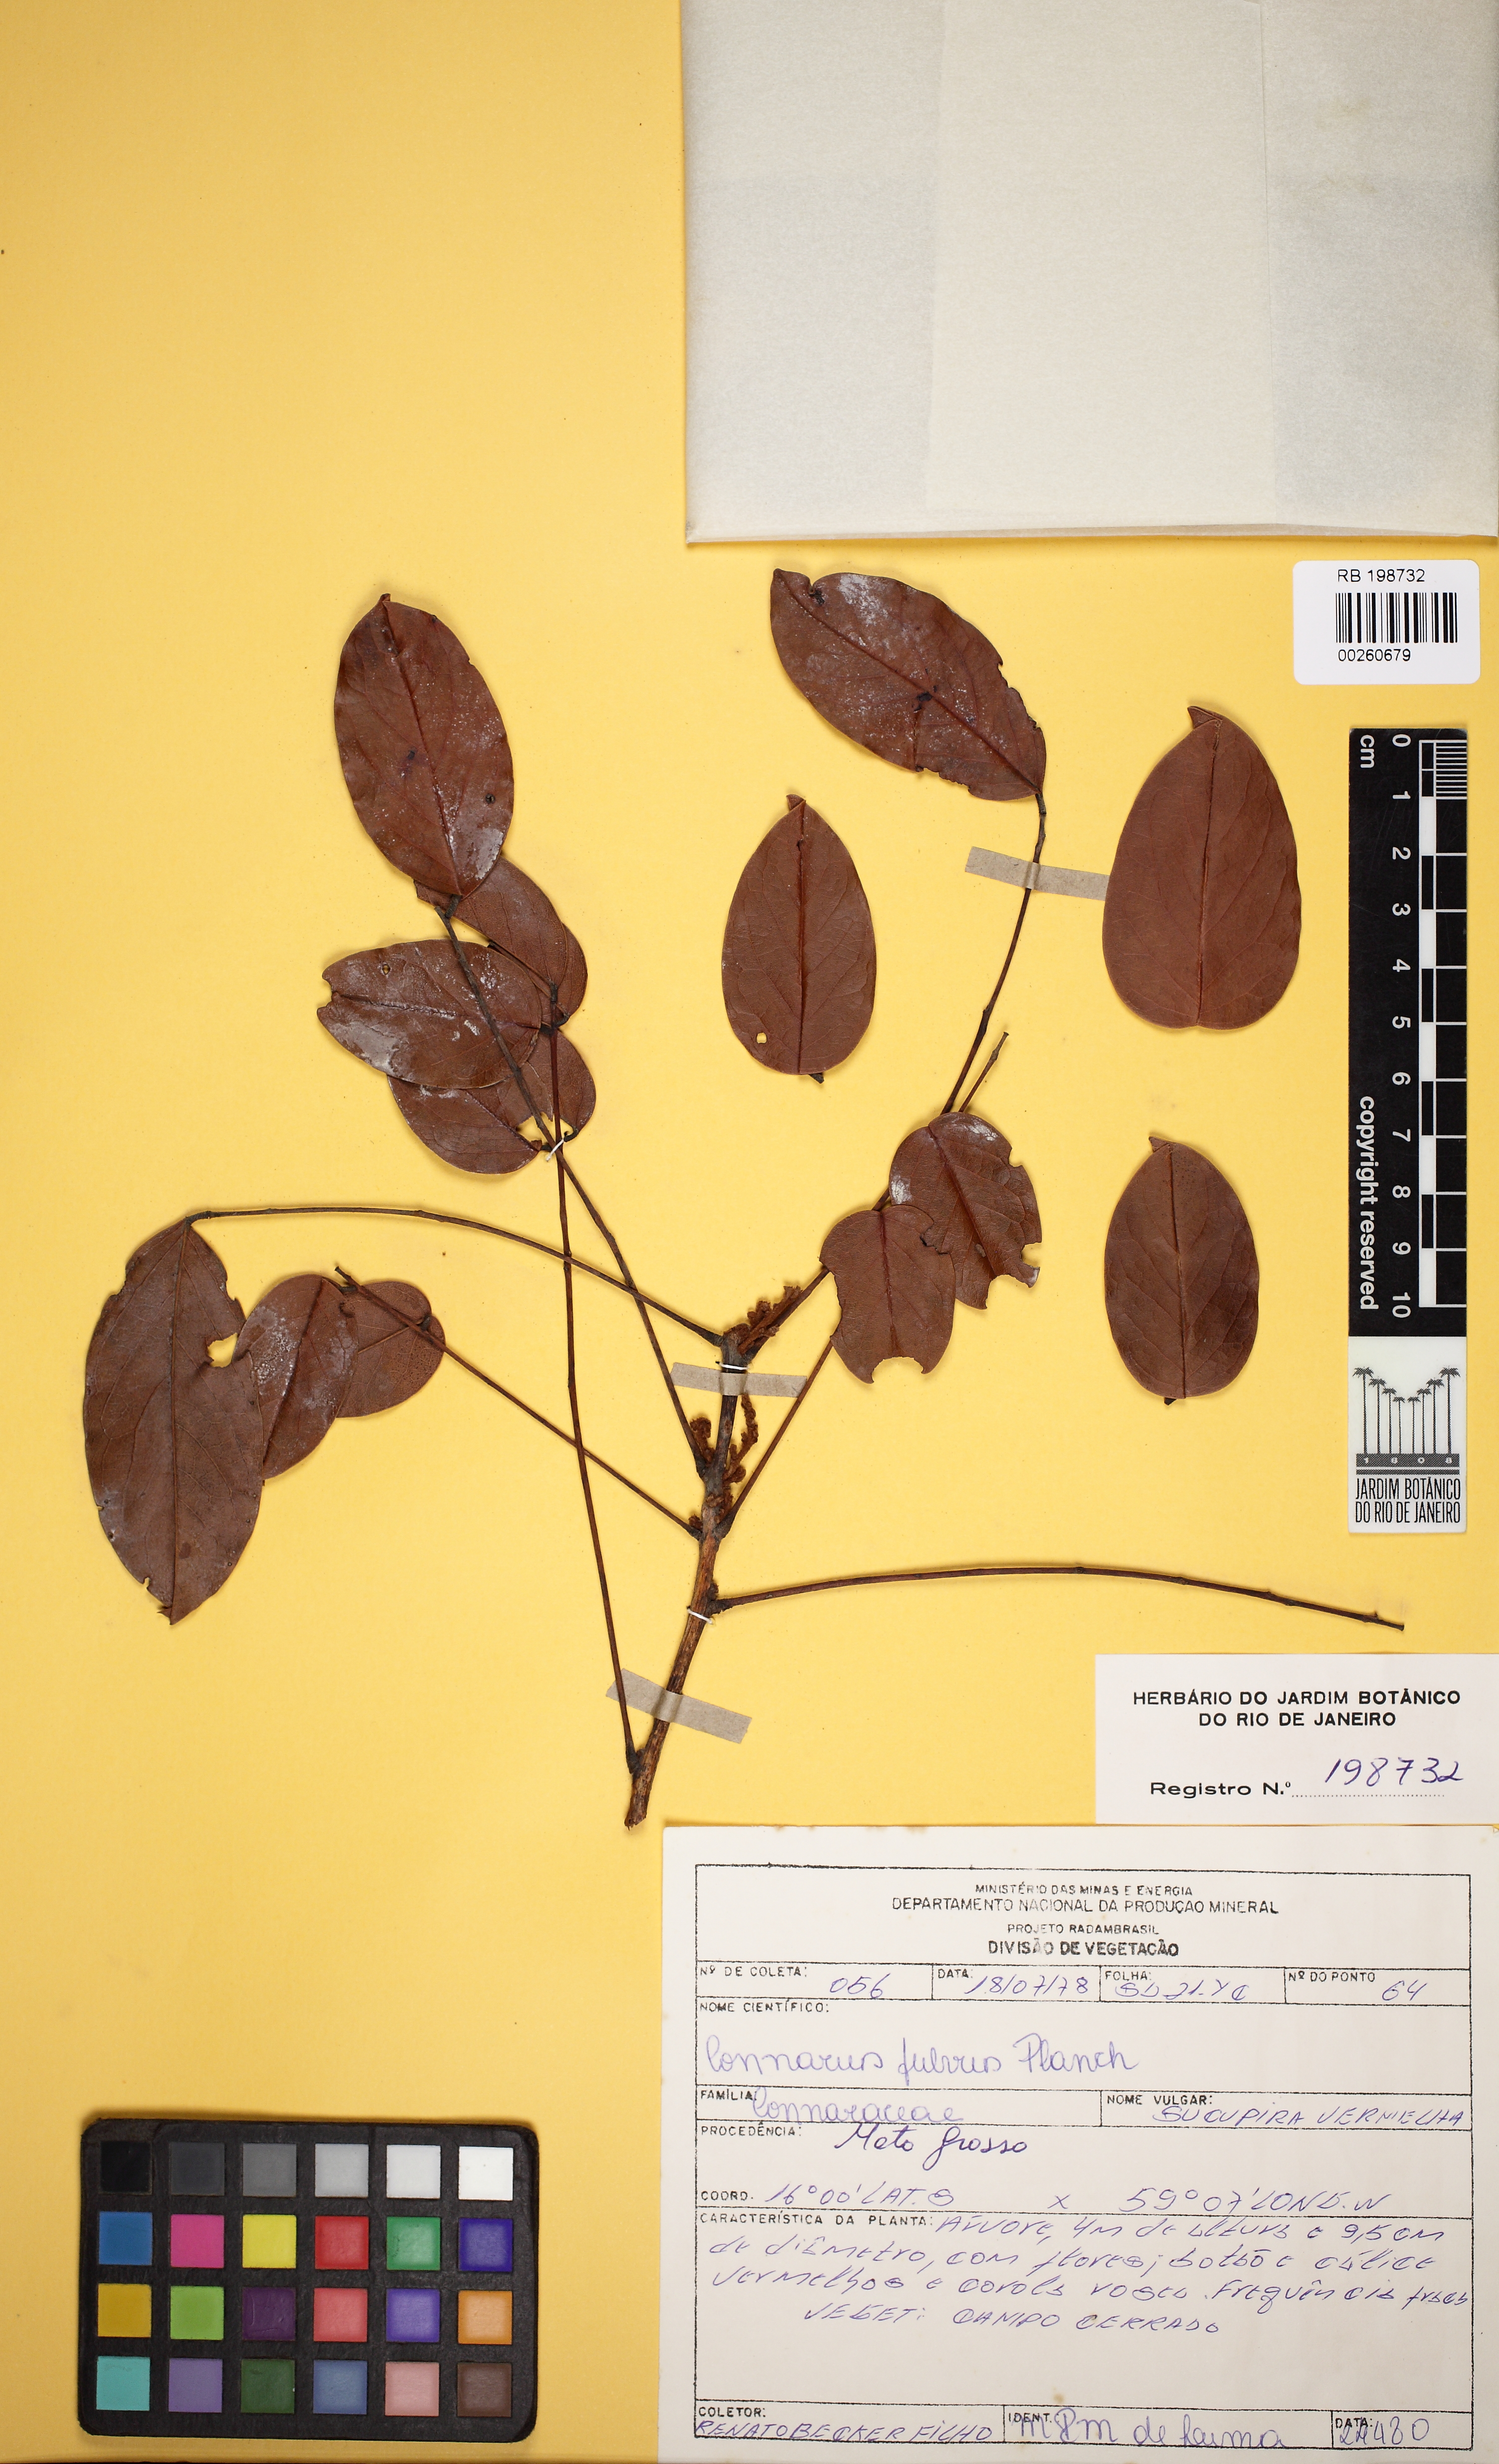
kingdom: Plantae
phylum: Tracheophyta
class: Magnoliopsida
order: Oxalidales
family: Connaraceae
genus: Connarus
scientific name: Connarus suberosus
